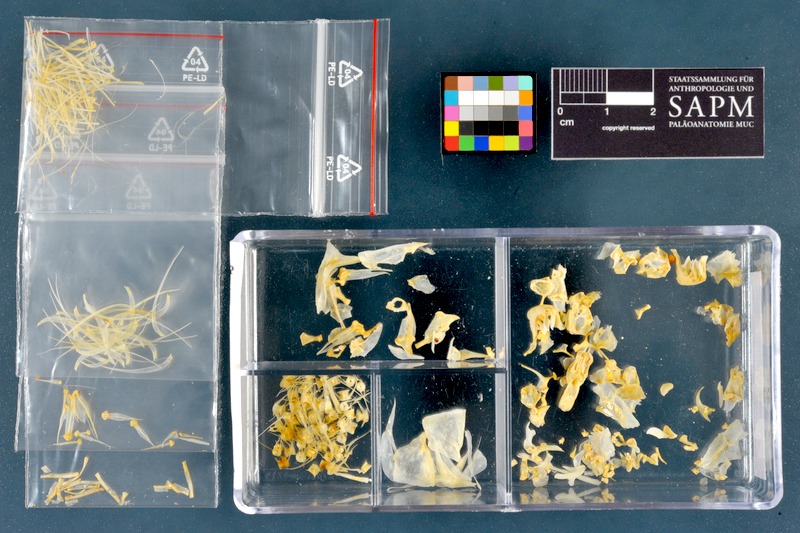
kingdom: Animalia
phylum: Chordata
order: Cypriniformes
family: Cyprinidae
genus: Chondrostoma
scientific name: Chondrostoma regium
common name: Mesopotamian nase
